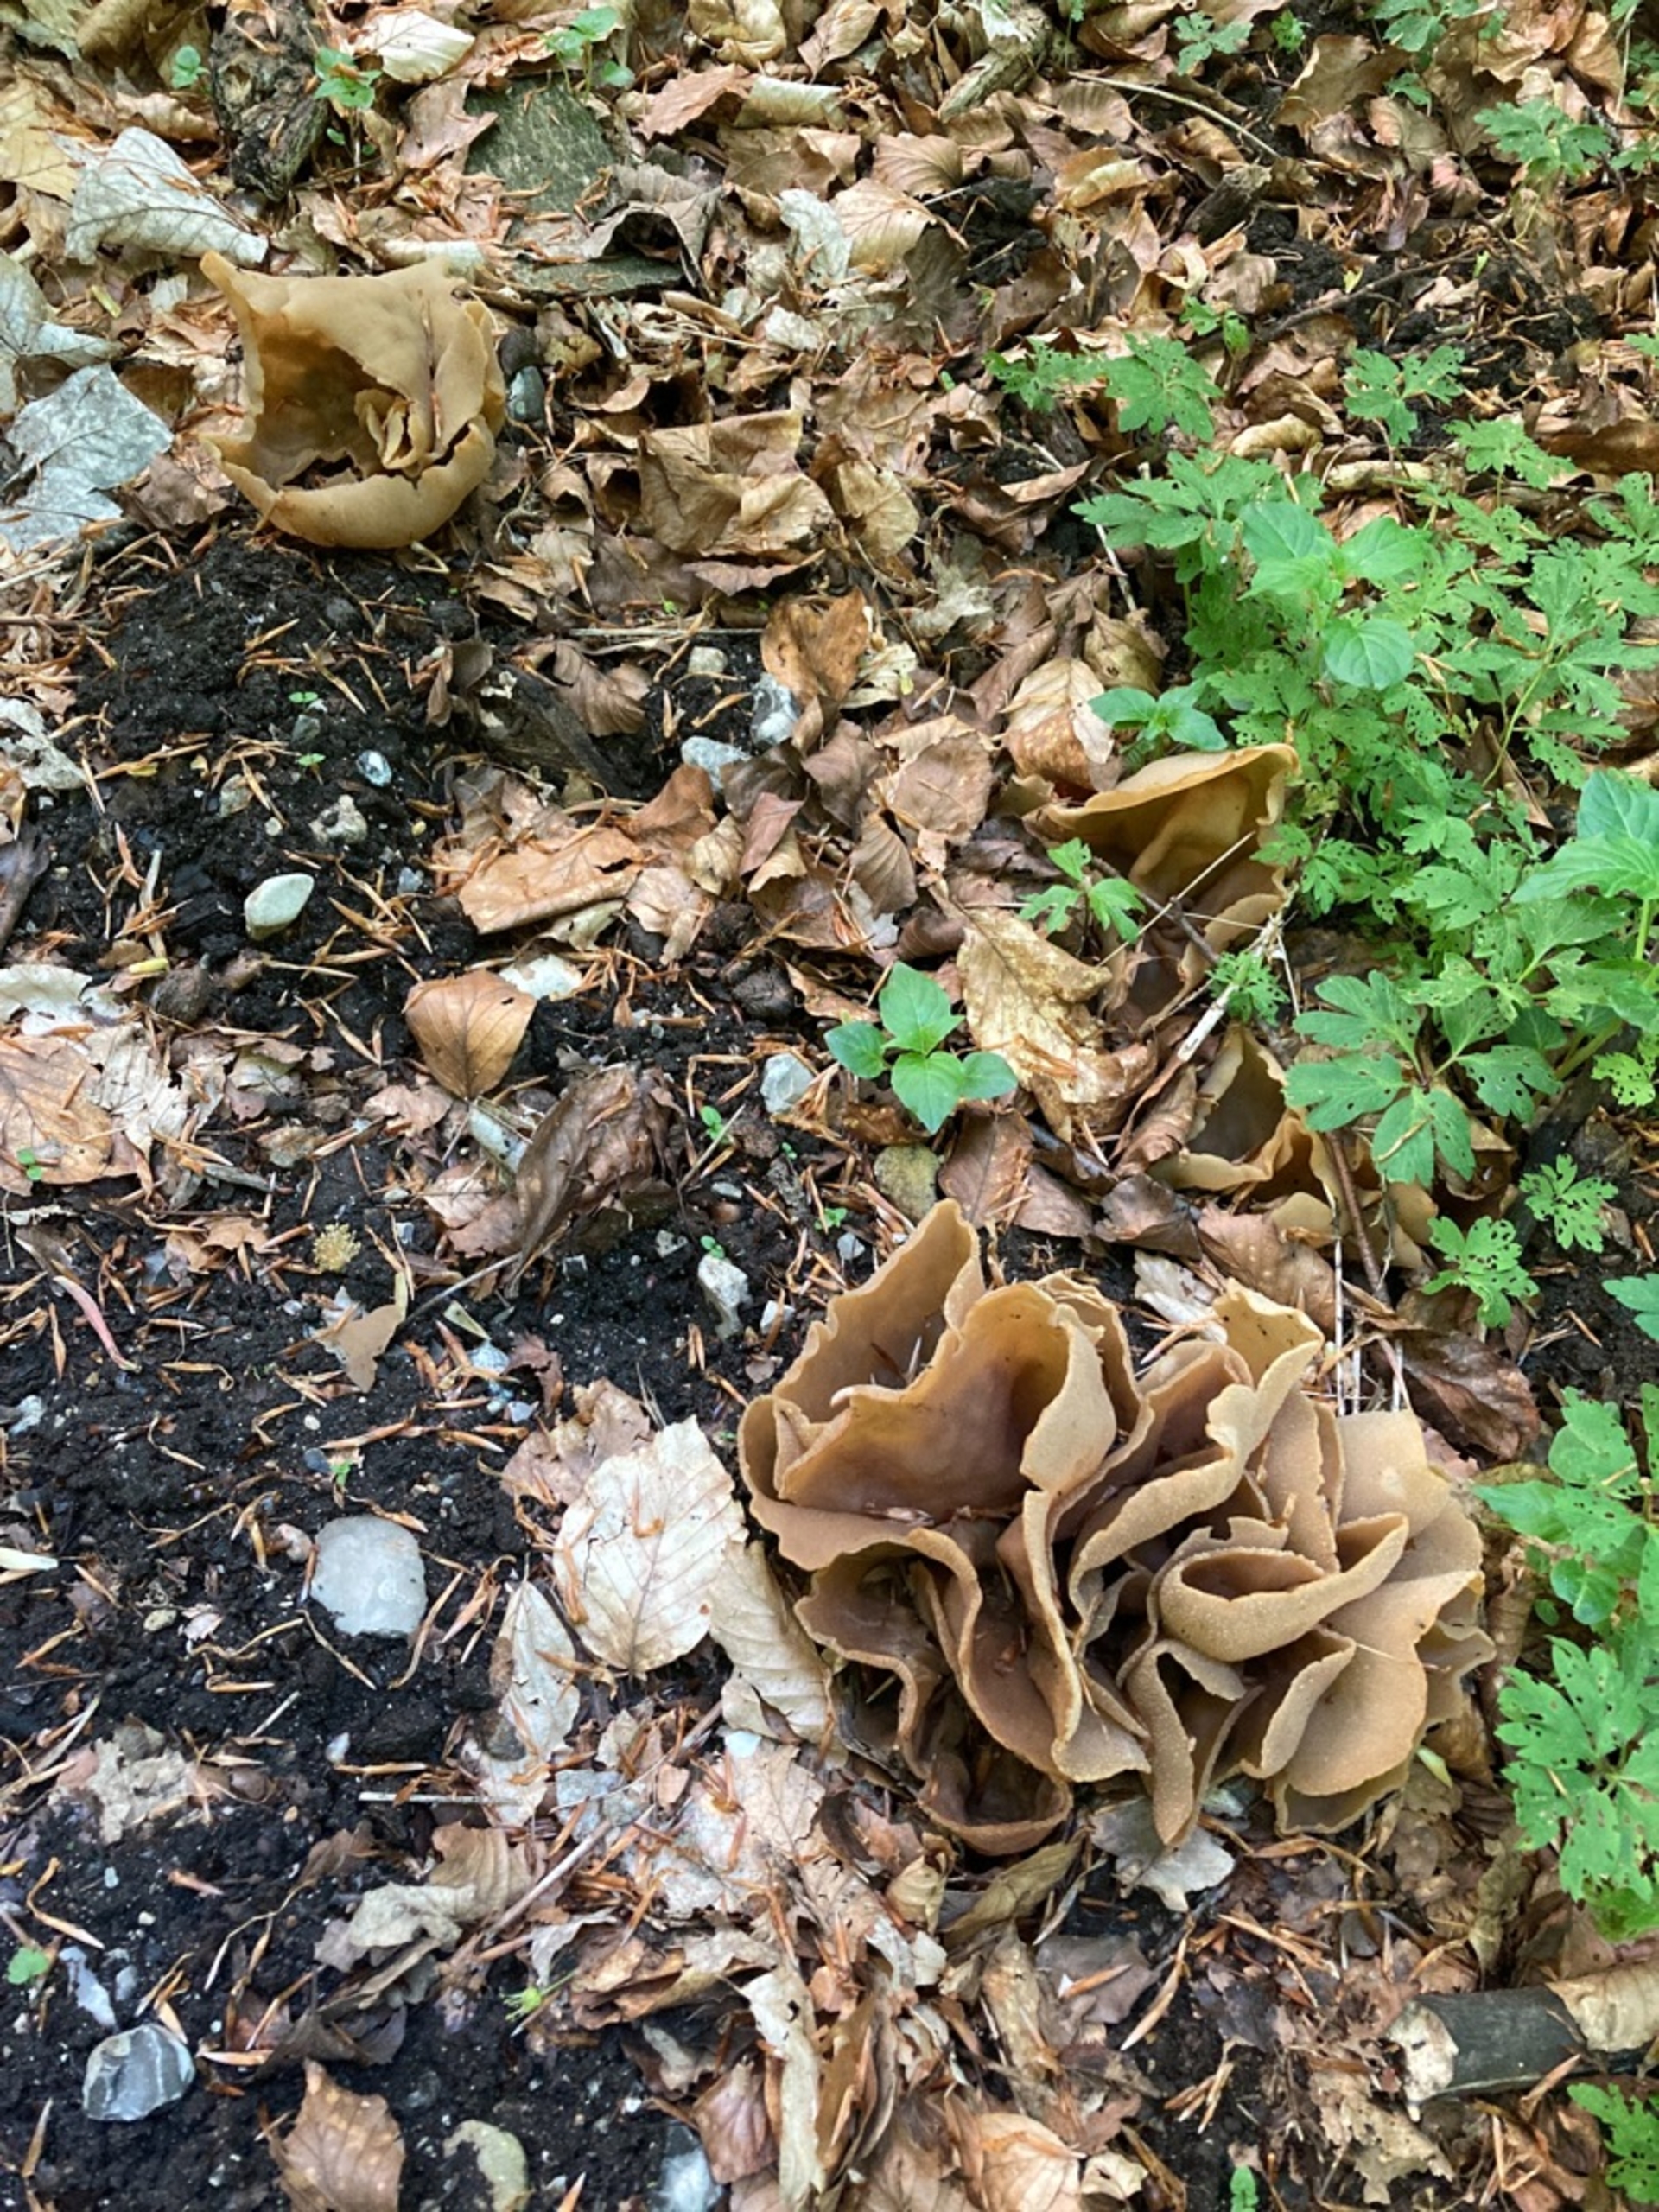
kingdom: Fungi
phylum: Ascomycota
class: Pezizomycetes
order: Pezizales
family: Pezizaceae
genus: Peziza
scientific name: Peziza
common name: Bægersvamp
